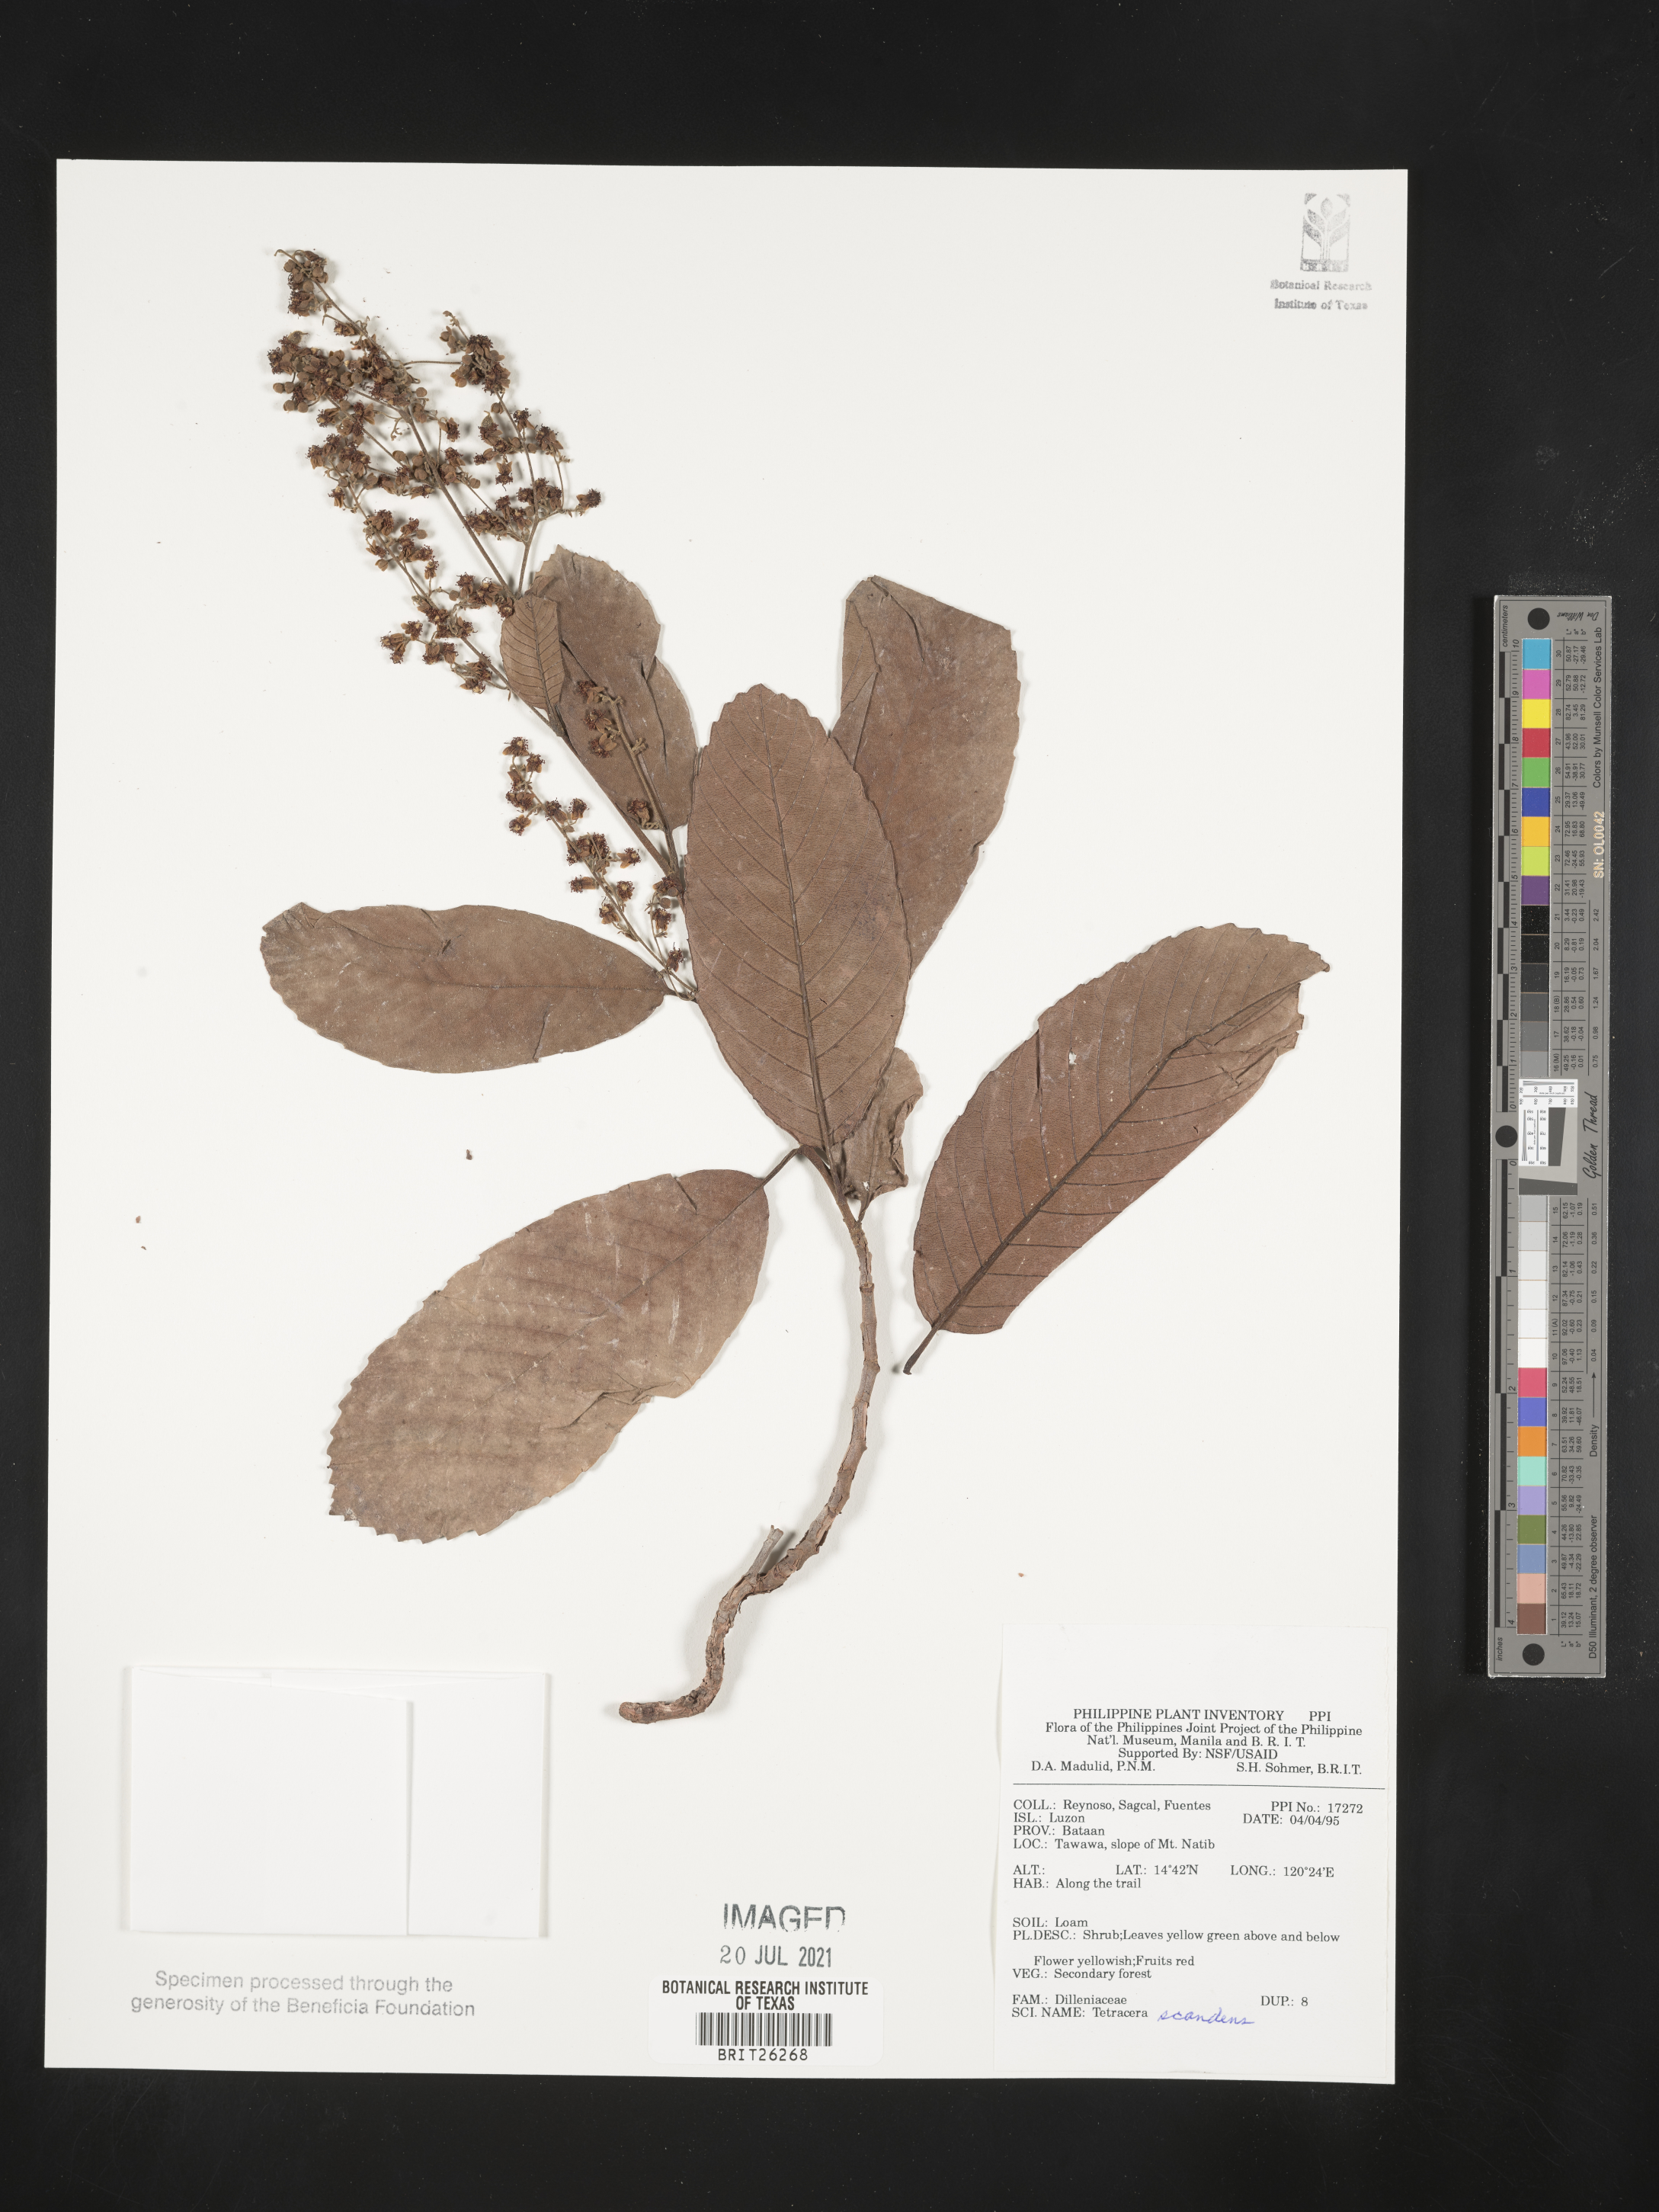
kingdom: Plantae
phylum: Tracheophyta
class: Magnoliopsida
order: Dilleniales
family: Dilleniaceae
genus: Tetracera
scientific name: Tetracera sarmentosa
